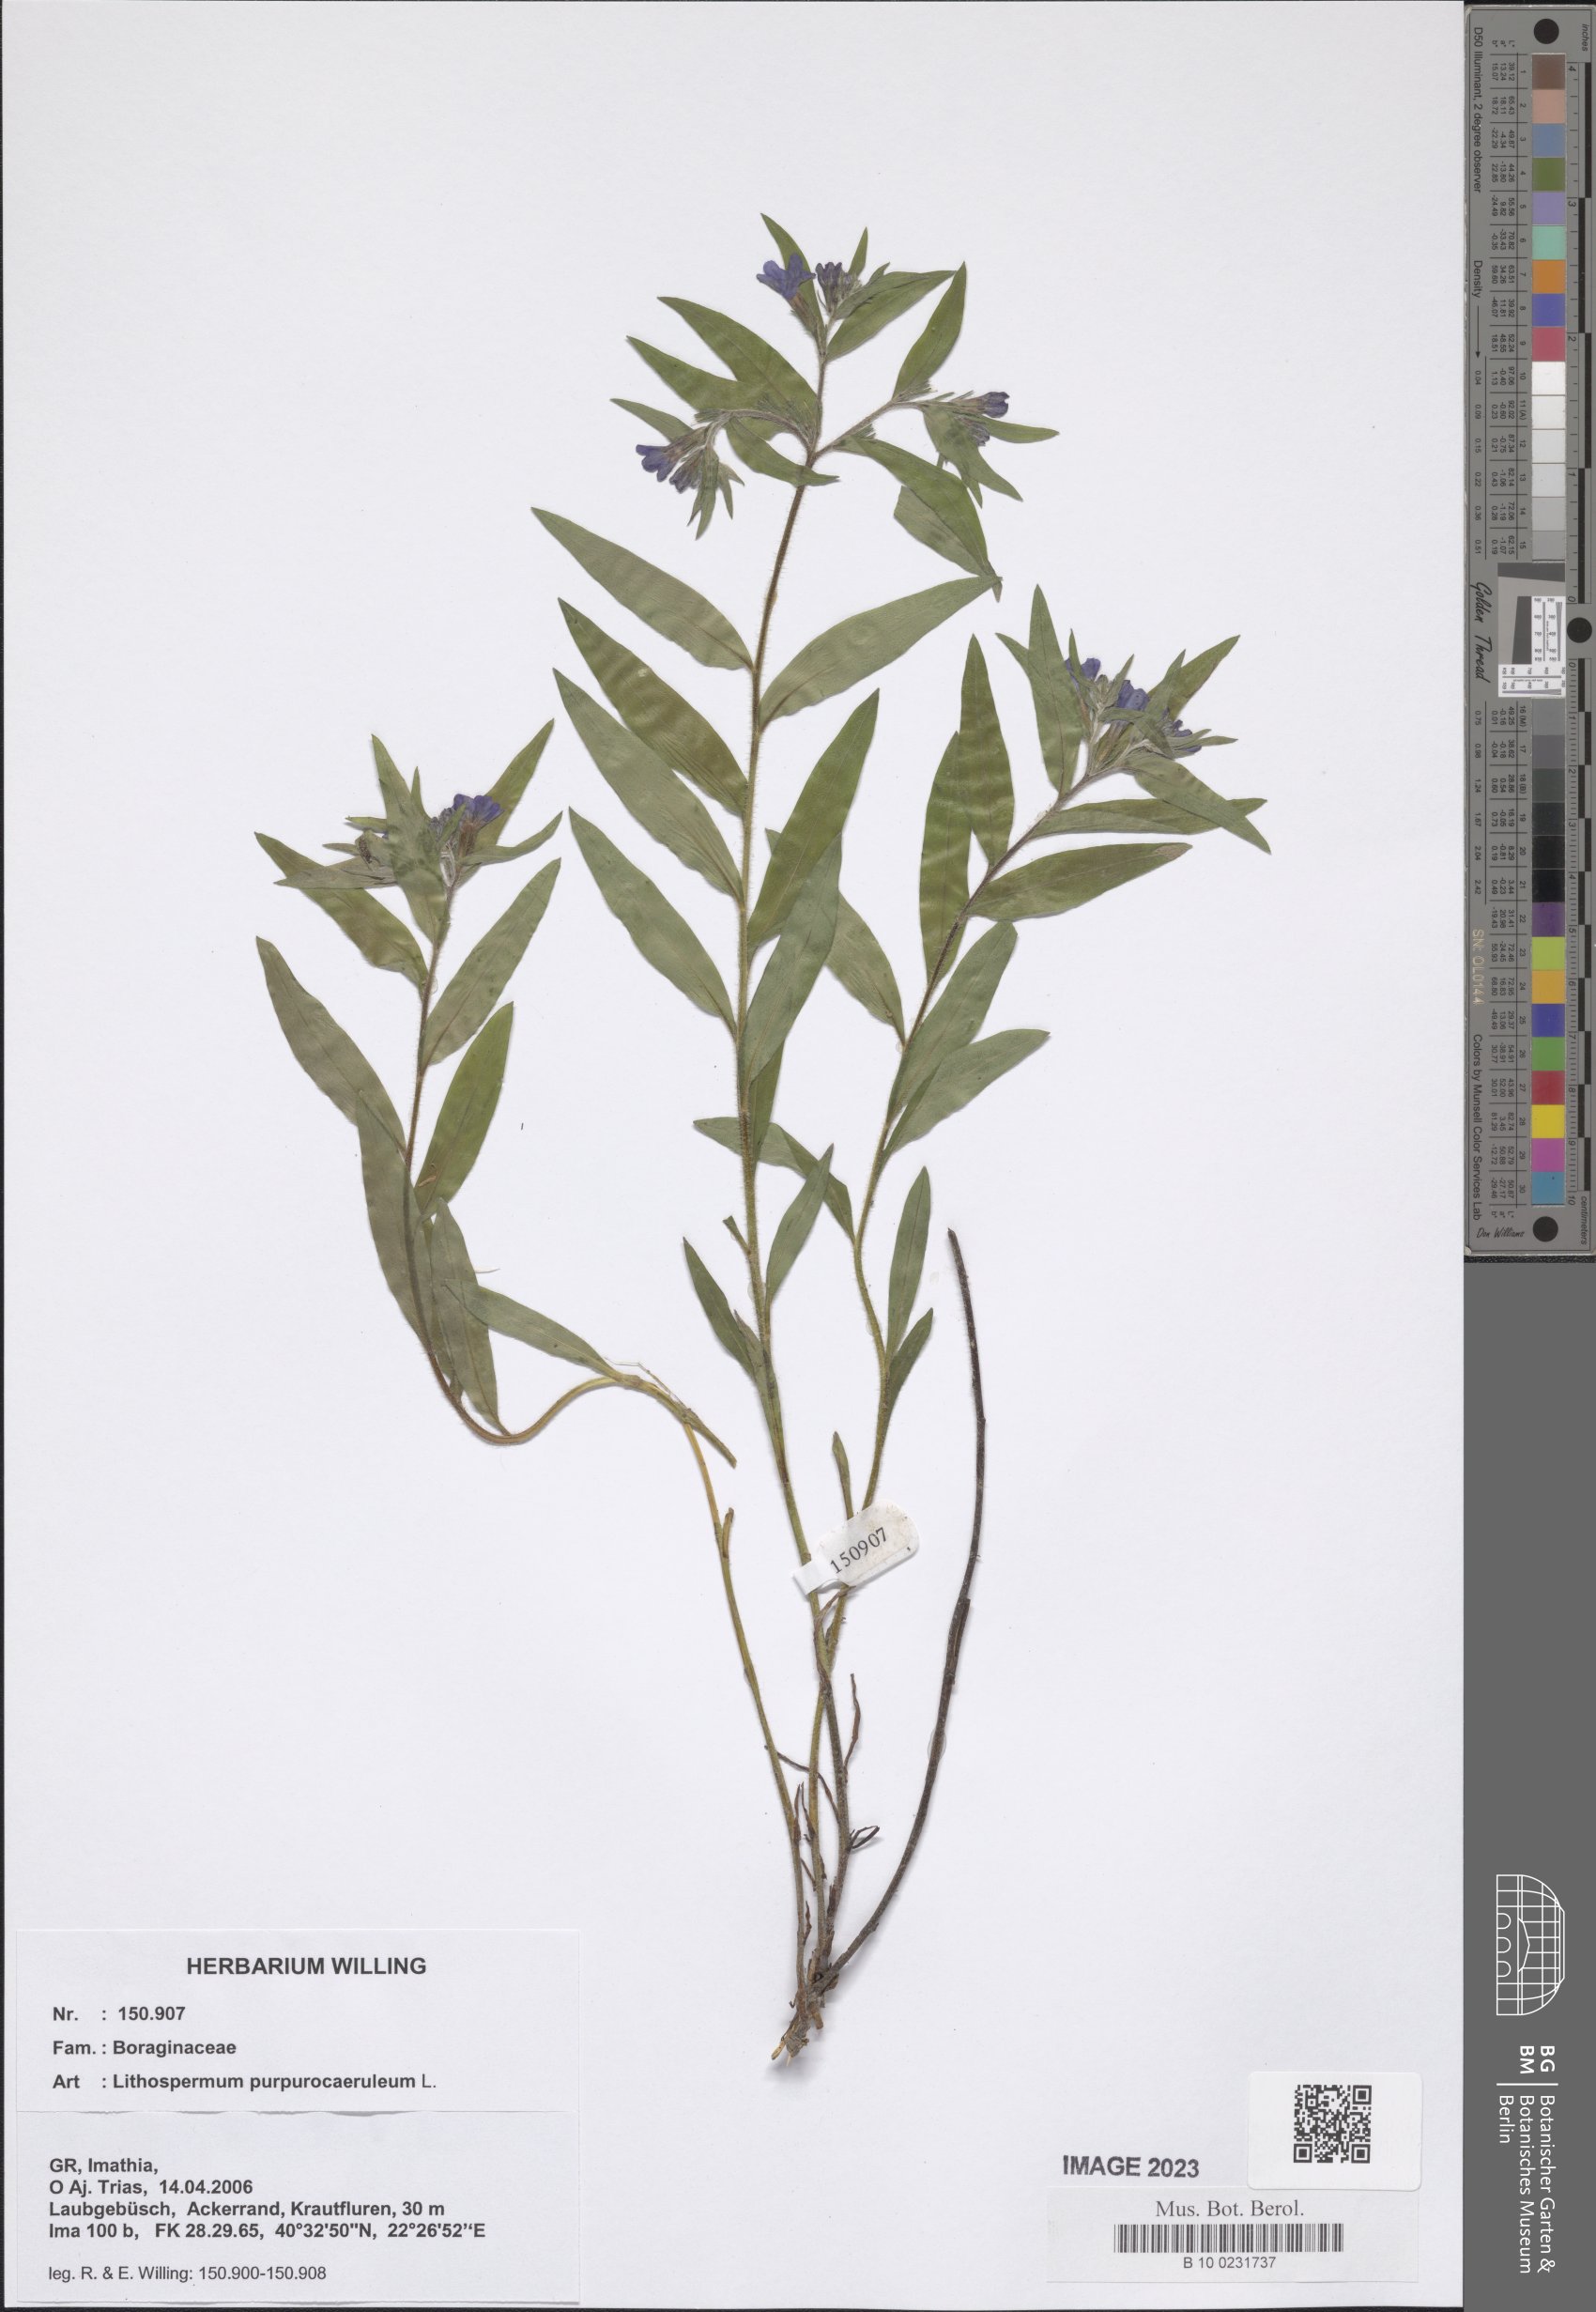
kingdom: Plantae
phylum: Tracheophyta
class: Magnoliopsida
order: Boraginales
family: Boraginaceae
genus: Aegonychon
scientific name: Aegonychon purpurocaeruleum
